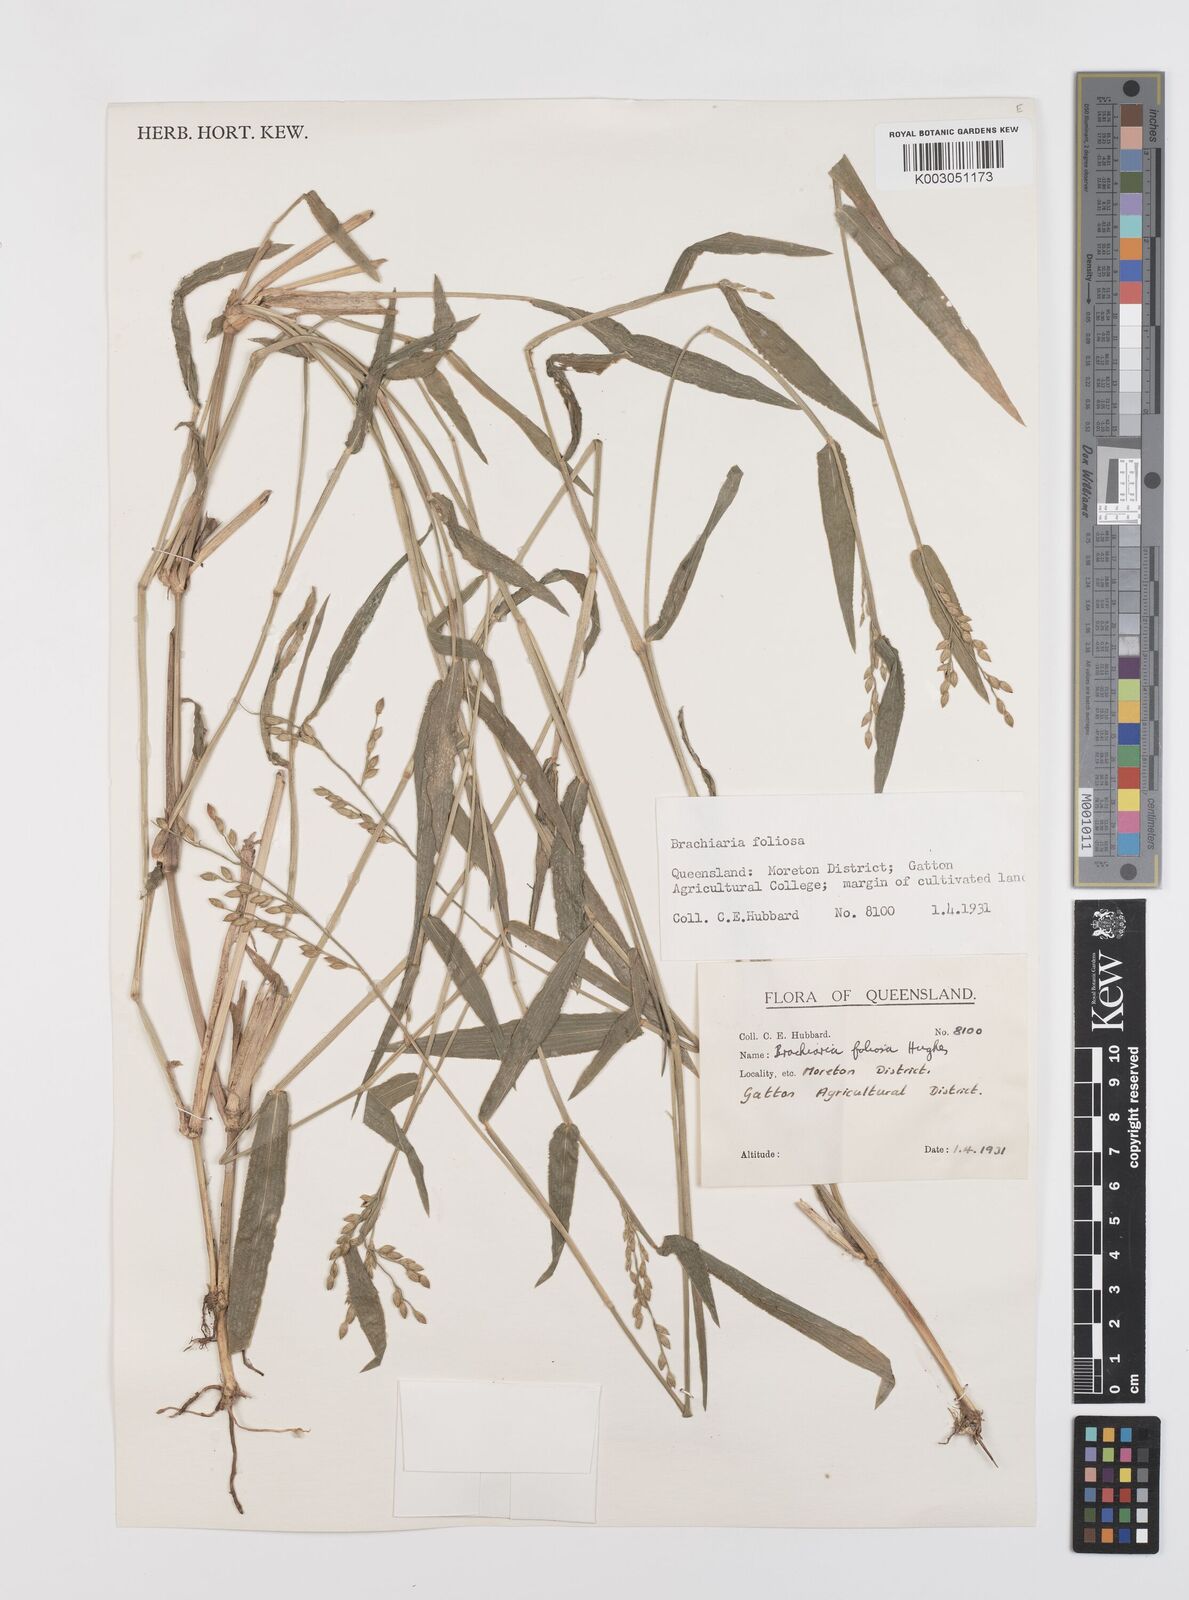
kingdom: Plantae
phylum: Tracheophyta
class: Liliopsida
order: Poales
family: Poaceae
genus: Urochloa
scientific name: Urochloa foliosa
